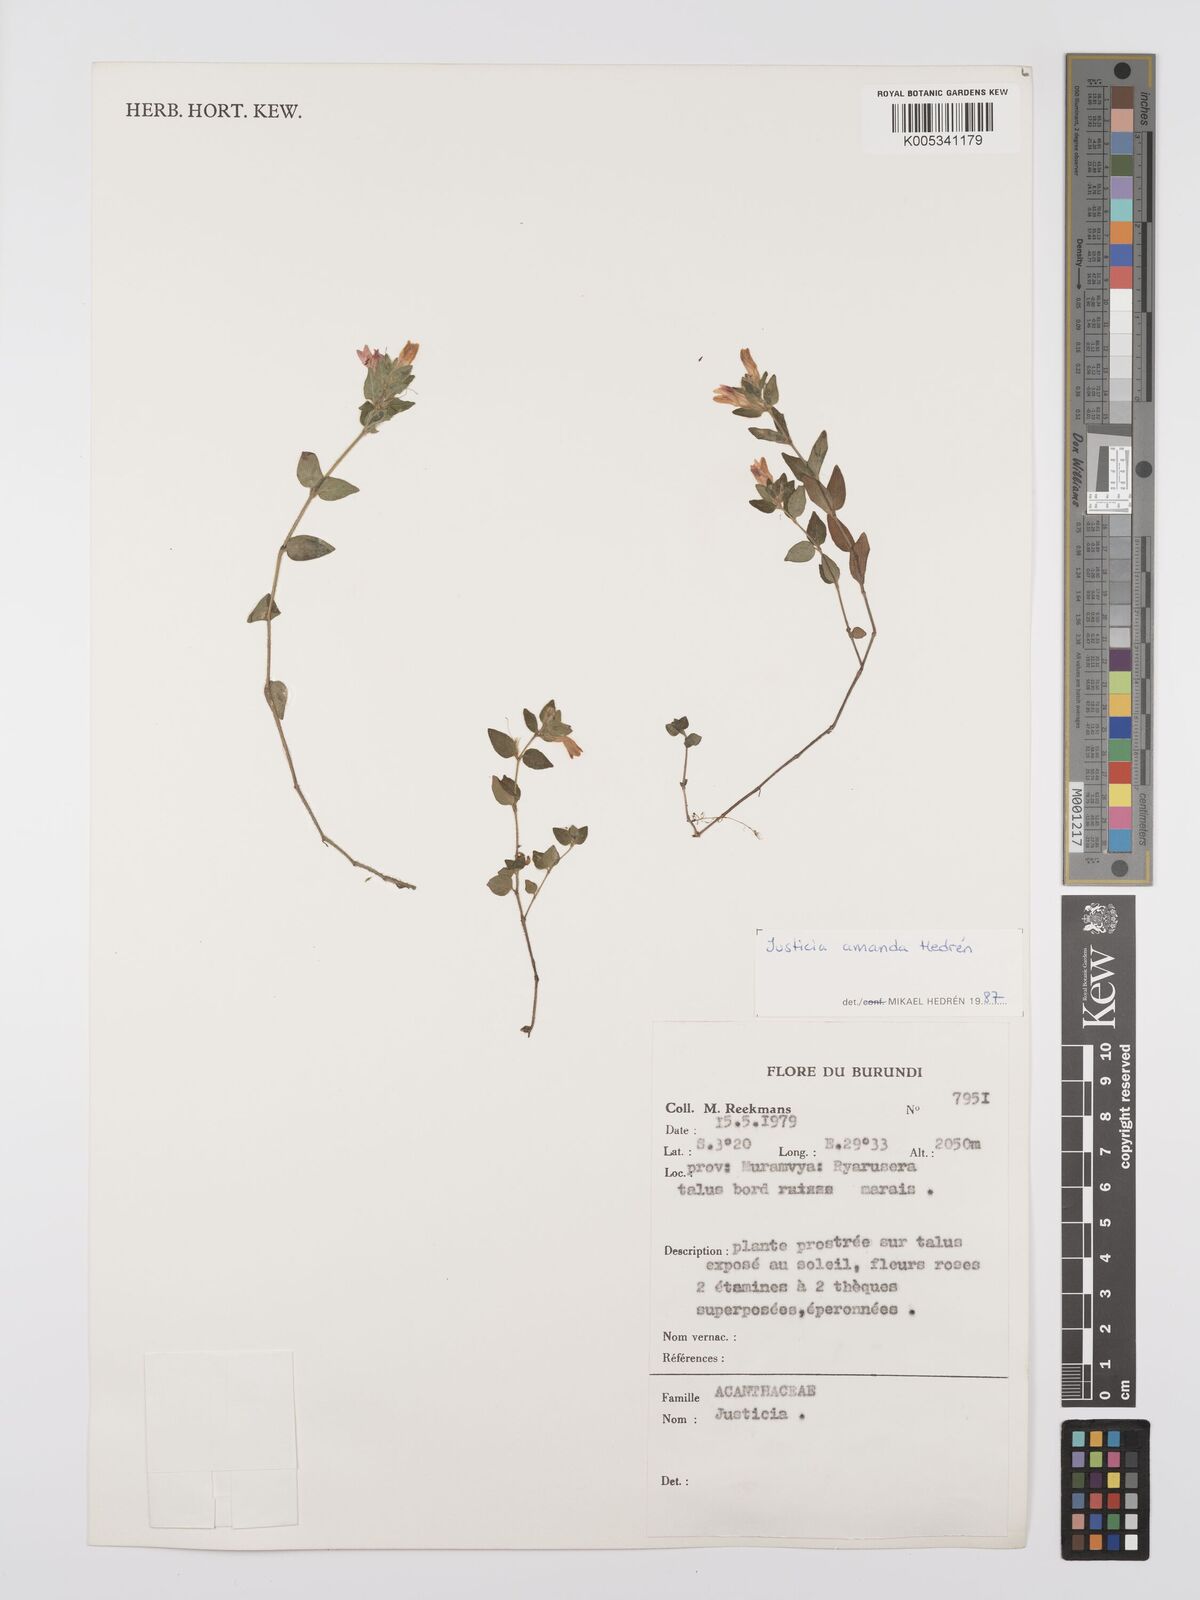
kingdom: Plantae
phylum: Tracheophyta
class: Magnoliopsida
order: Lamiales
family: Acanthaceae
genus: Justicia
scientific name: Justicia amanda
